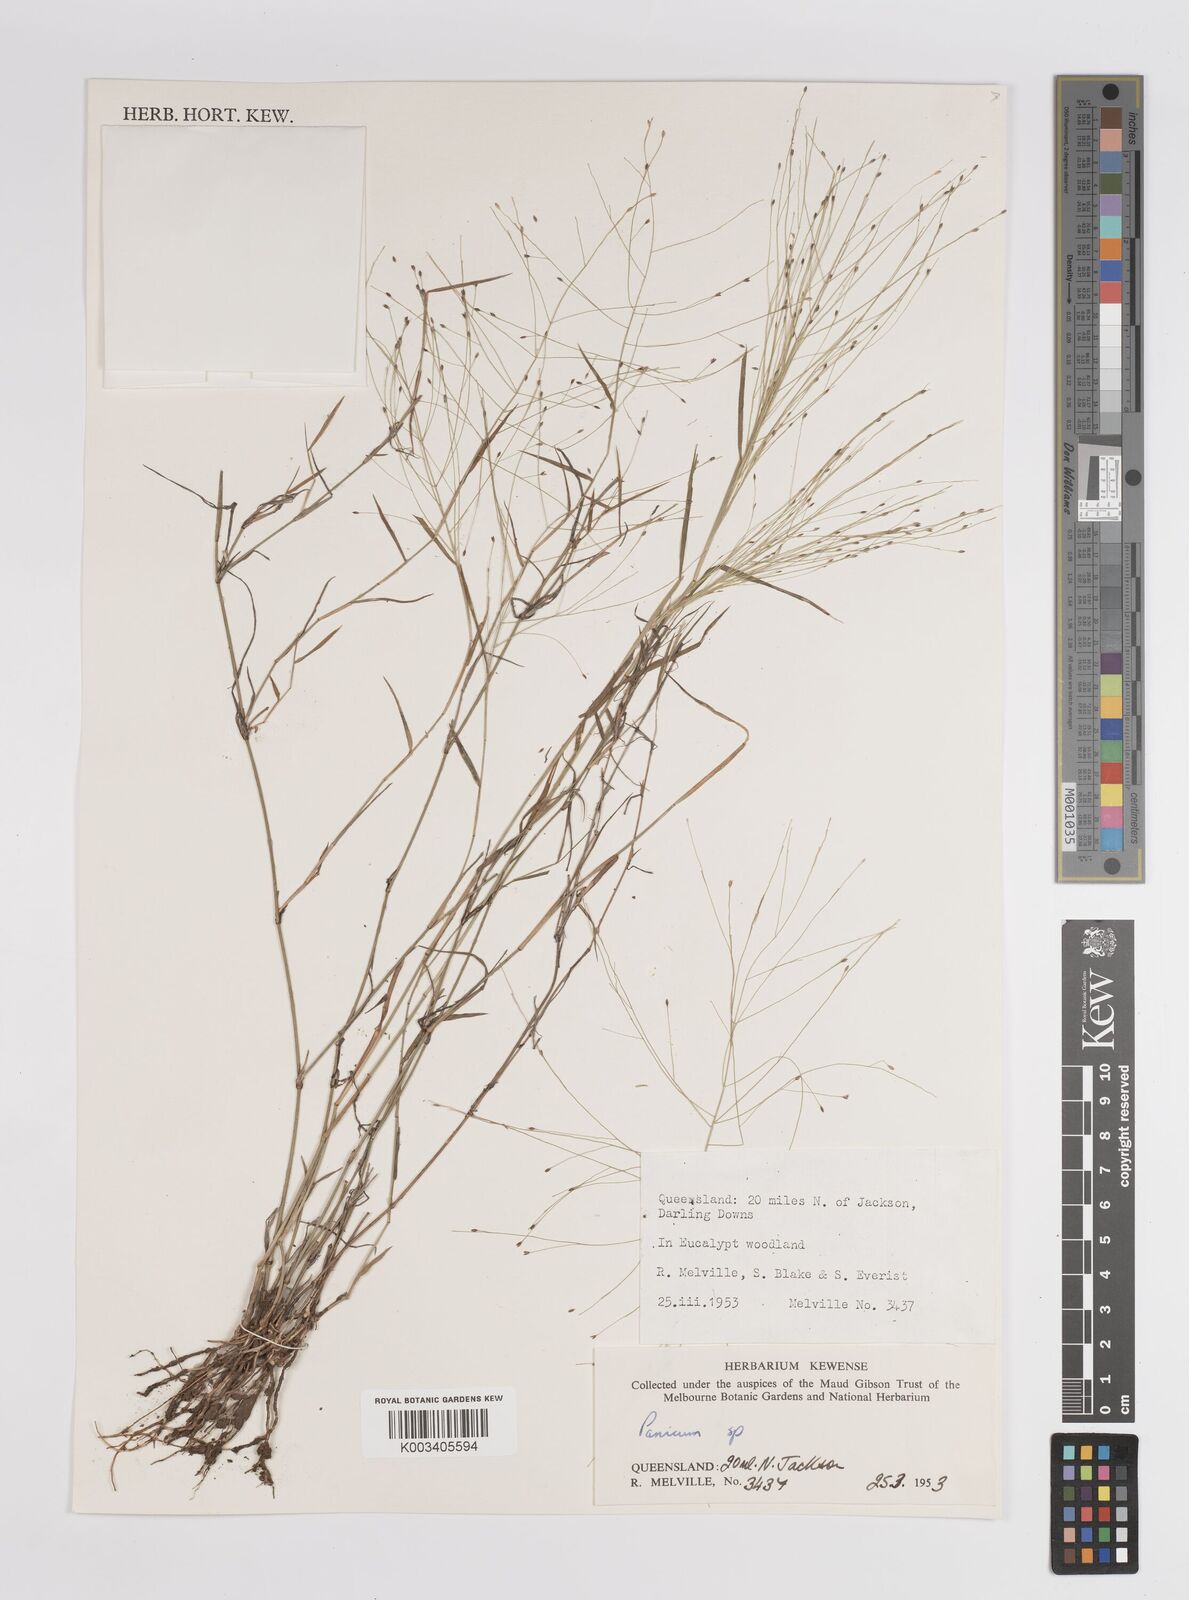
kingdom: Plantae
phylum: Tracheophyta
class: Liliopsida
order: Poales
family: Poaceae
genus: Panicum
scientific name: Panicum
